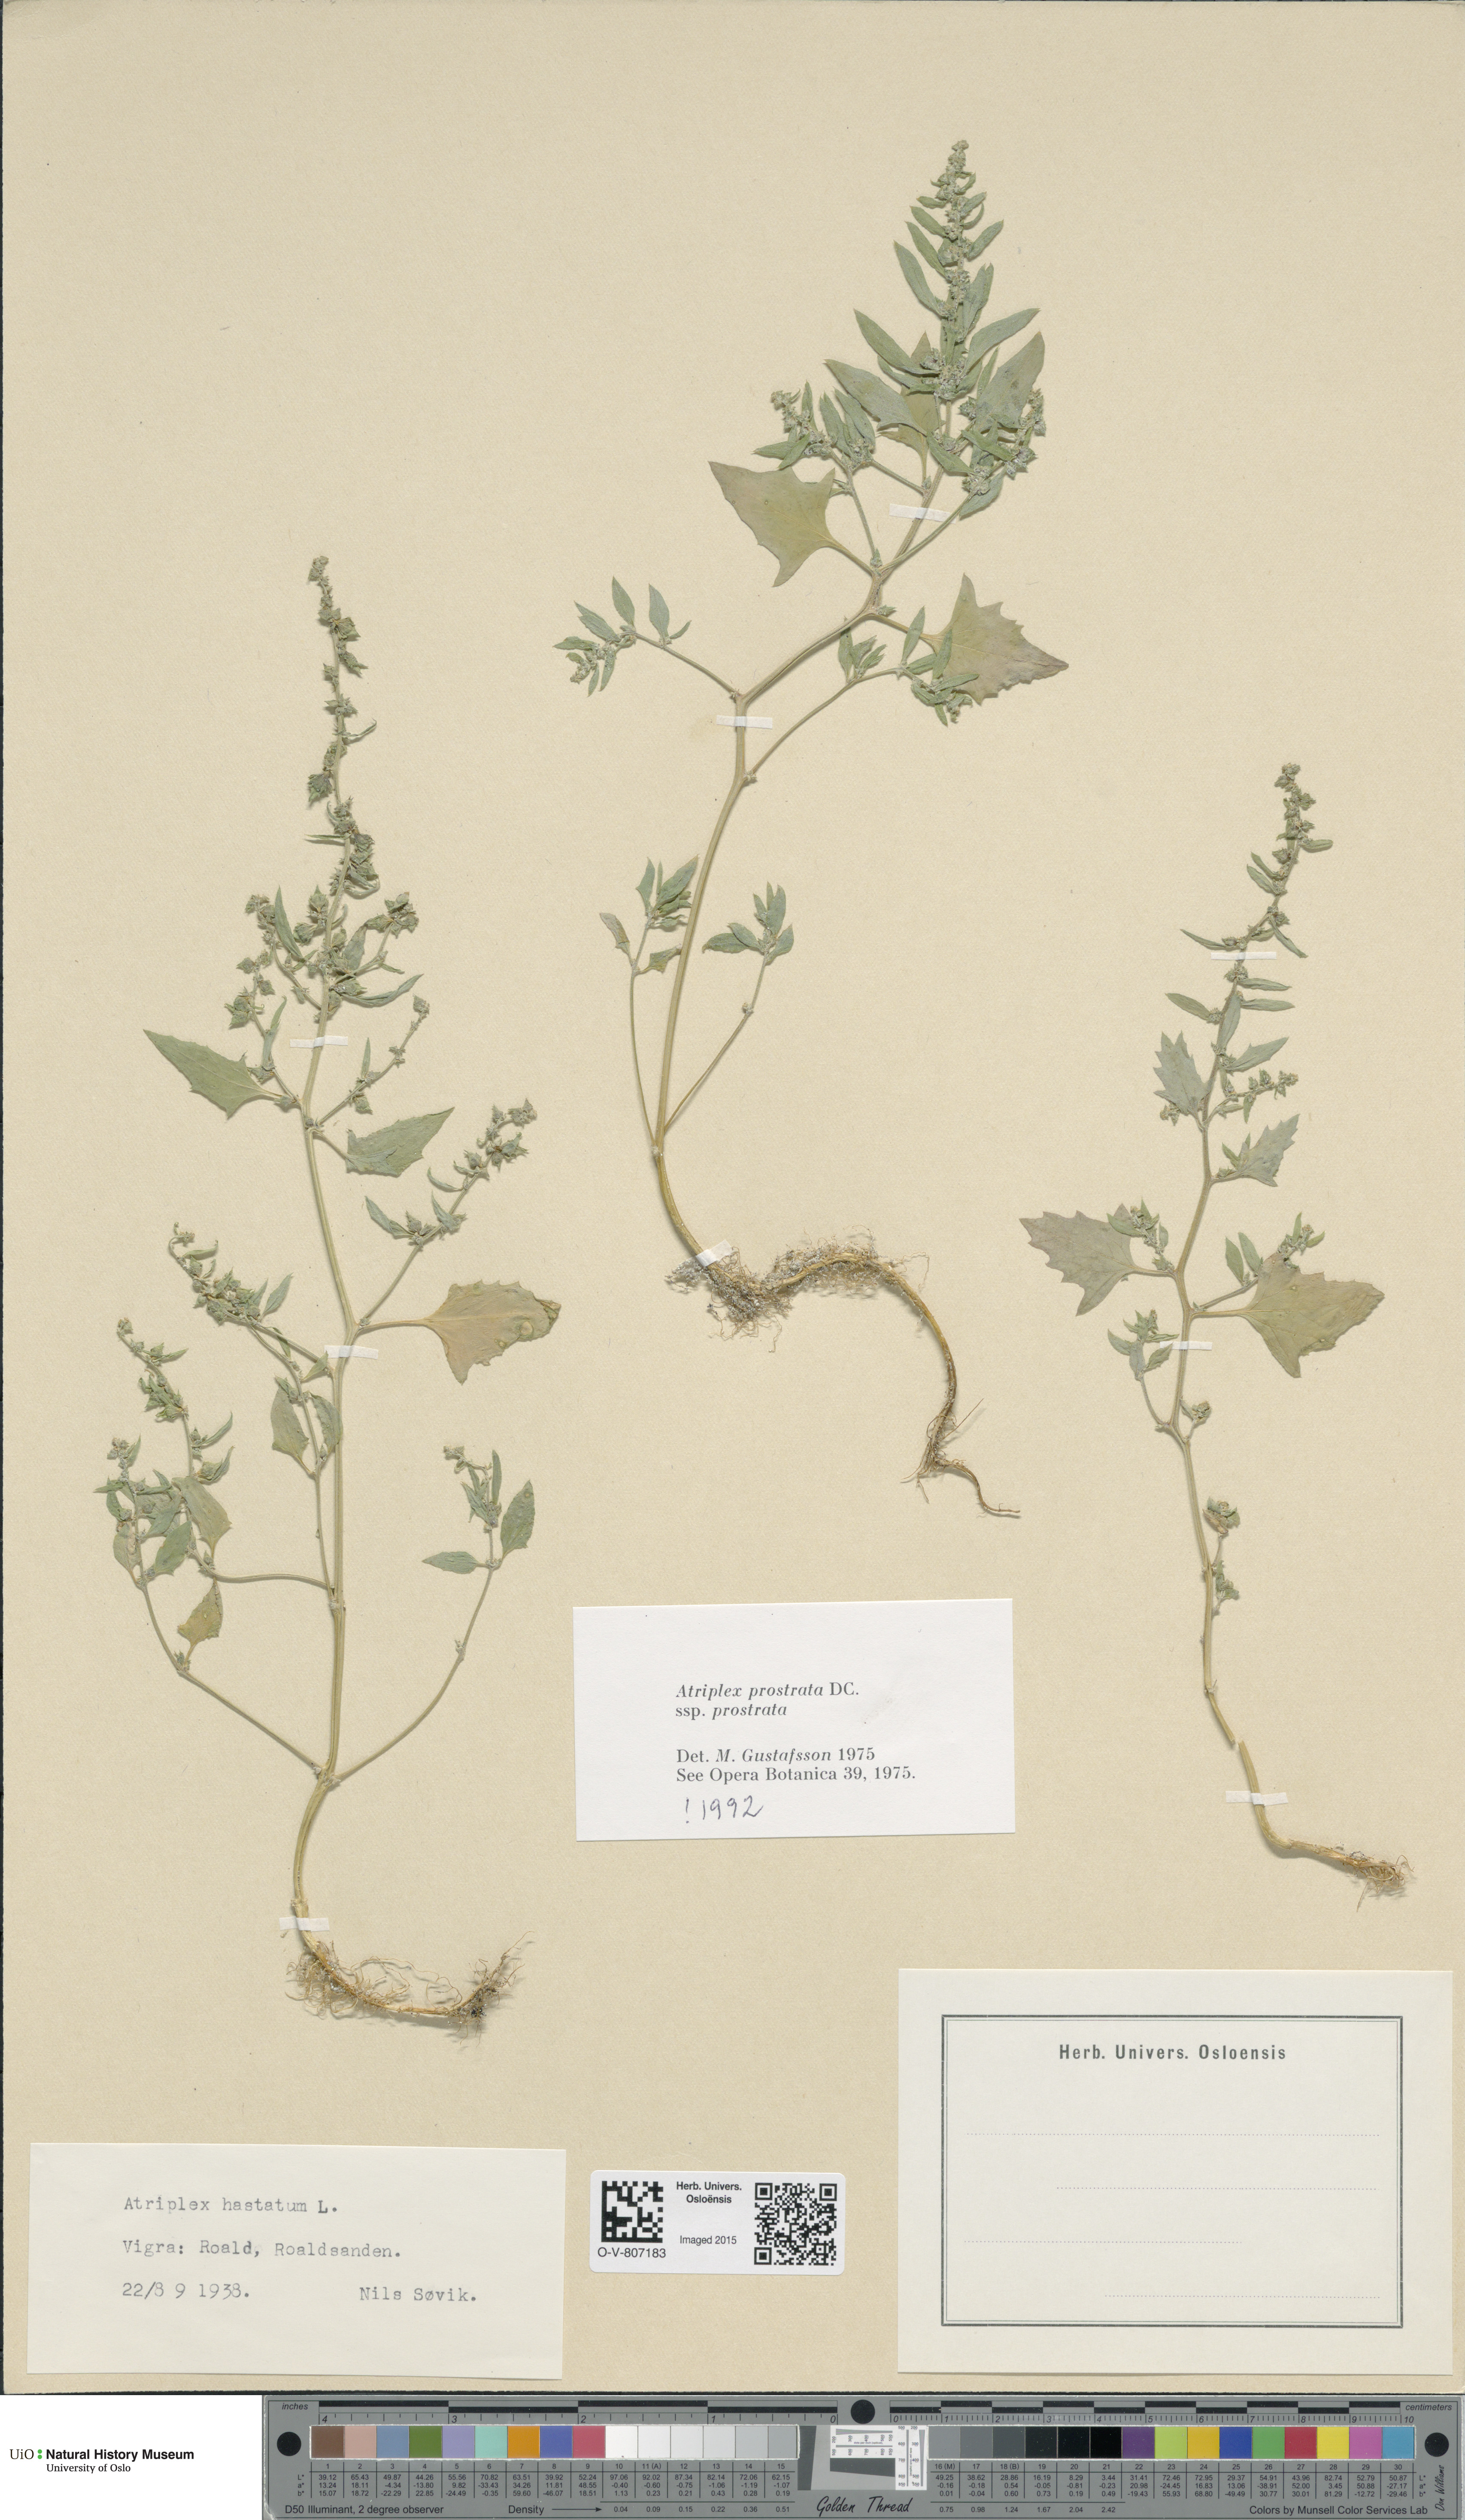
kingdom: Plantae
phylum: Tracheophyta
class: Magnoliopsida
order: Caryophyllales
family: Amaranthaceae
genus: Atriplex
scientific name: Atriplex prostrata
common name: Spear-leaved orache
